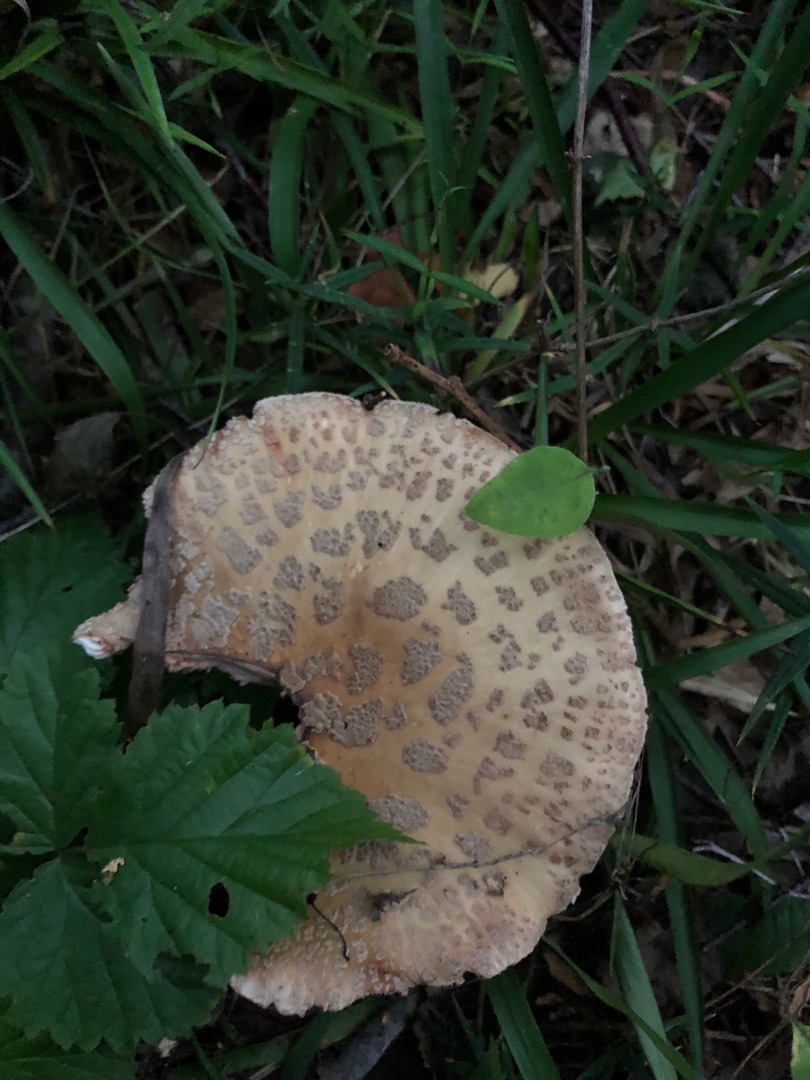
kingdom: Fungi
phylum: Basidiomycota
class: Agaricomycetes
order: Agaricales
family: Amanitaceae
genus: Amanita
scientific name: Amanita rubescens
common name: Rødmende fluesvamp
